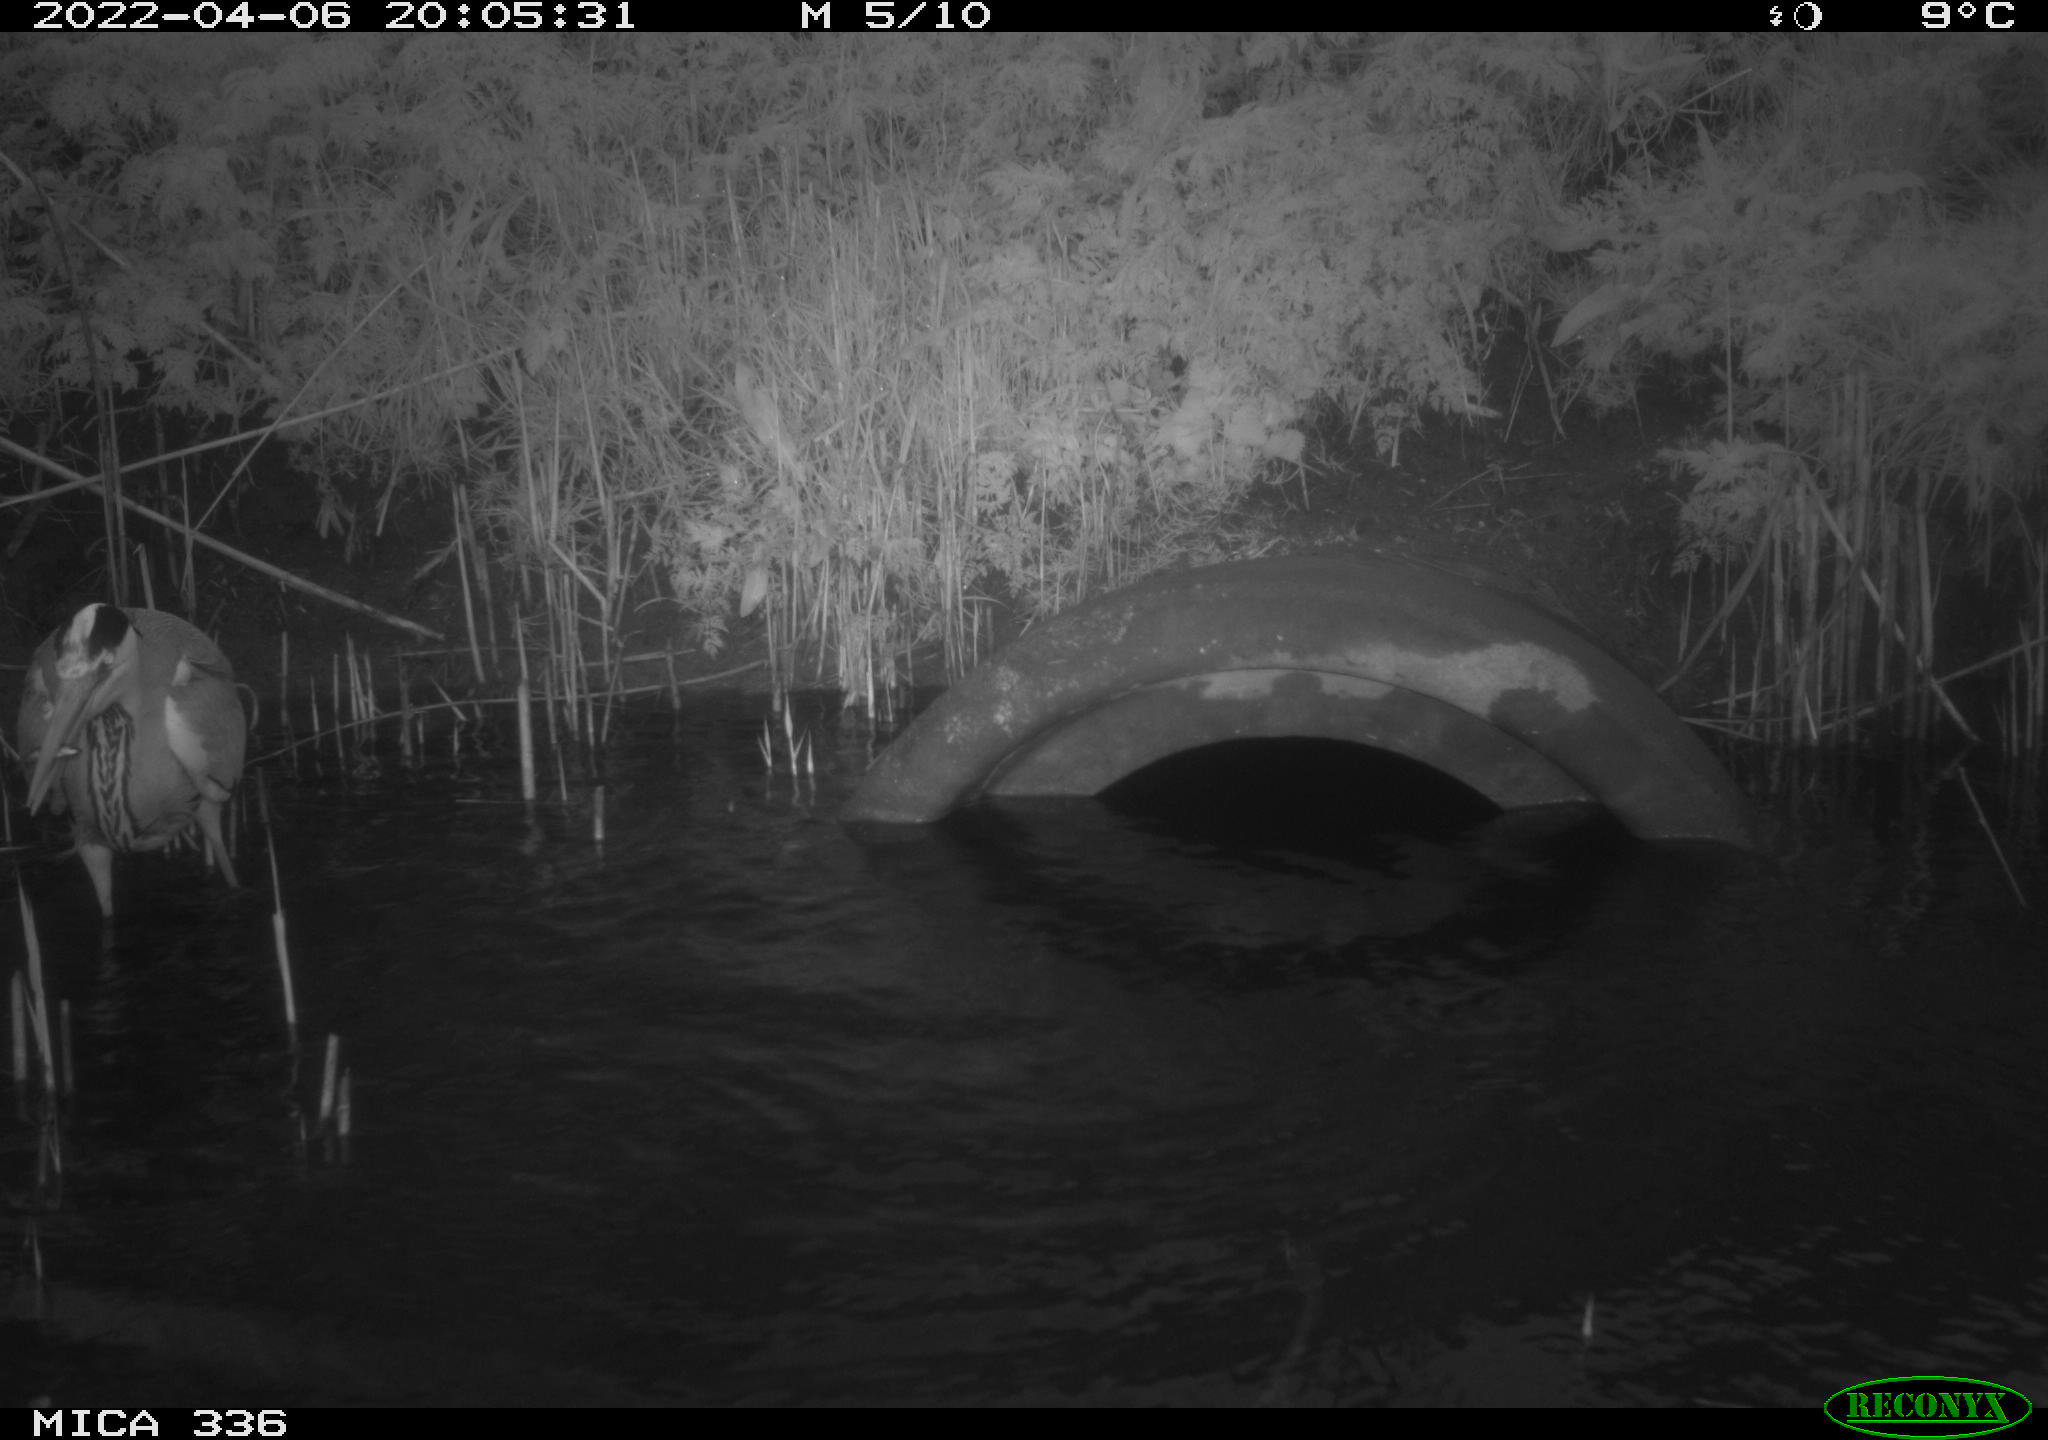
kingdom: Animalia
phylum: Chordata
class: Aves
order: Pelecaniformes
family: Ardeidae
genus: Ardea
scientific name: Ardea
